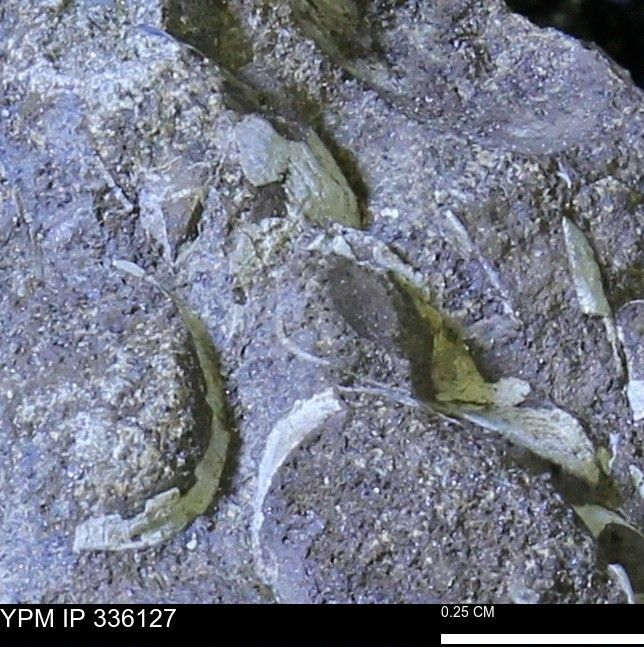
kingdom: Animalia
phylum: Mollusca
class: Bivalvia
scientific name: Bivalvia
